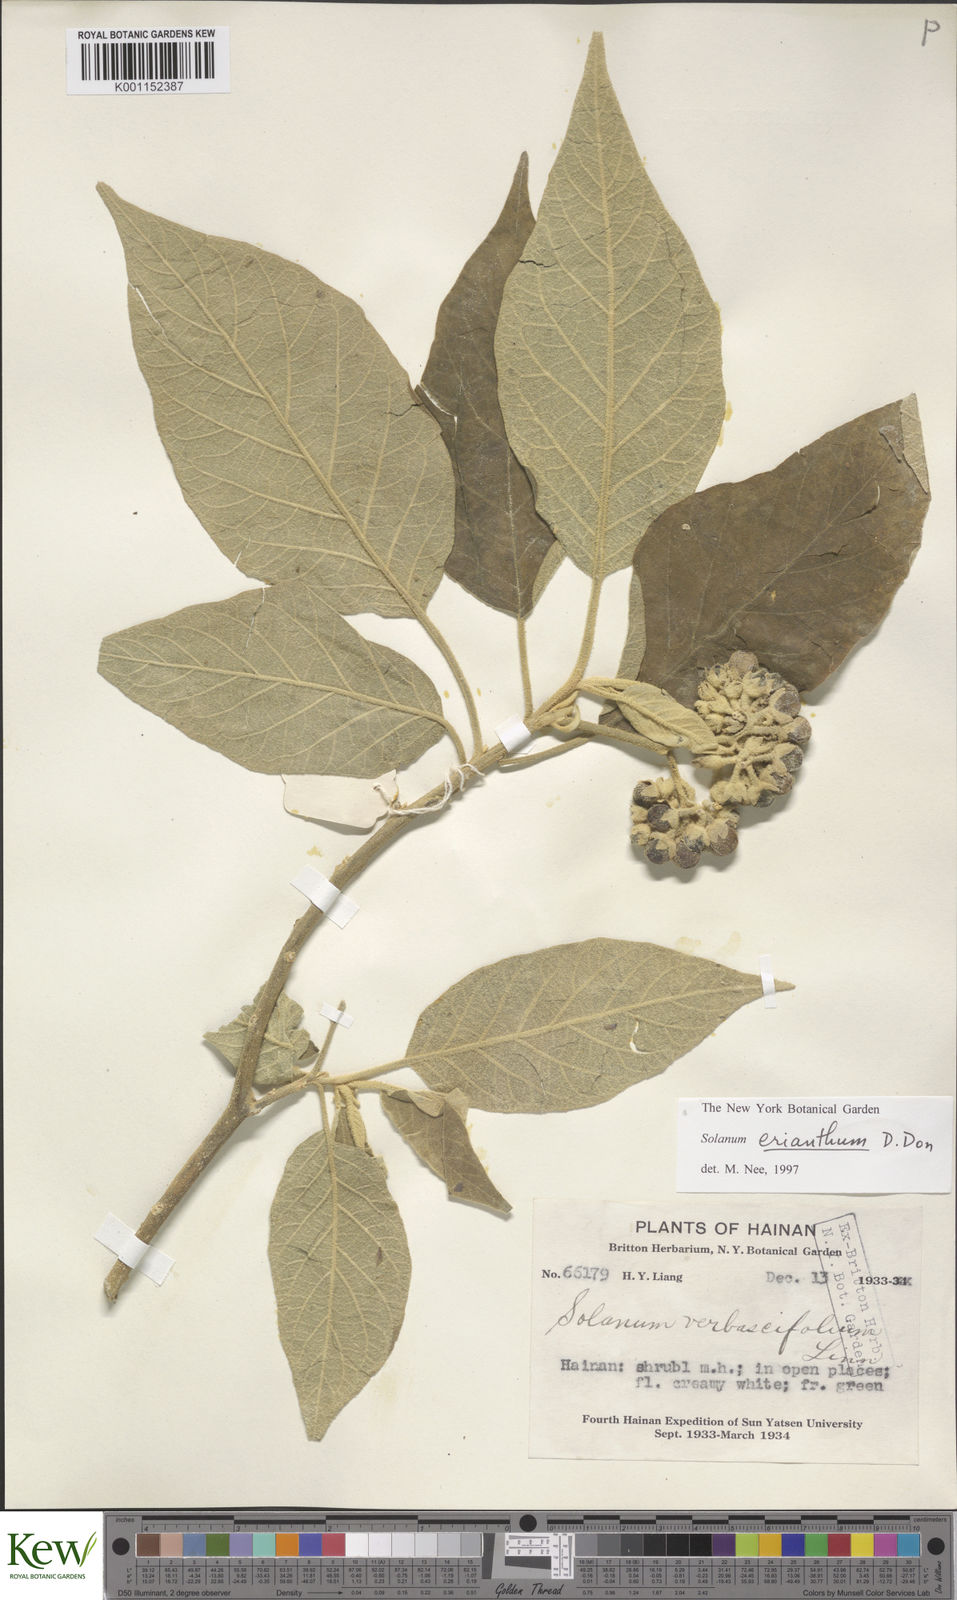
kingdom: Plantae
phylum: Tracheophyta
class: Magnoliopsida
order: Solanales
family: Solanaceae
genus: Solanum
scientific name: Solanum donianum
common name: Mullein nightshade
